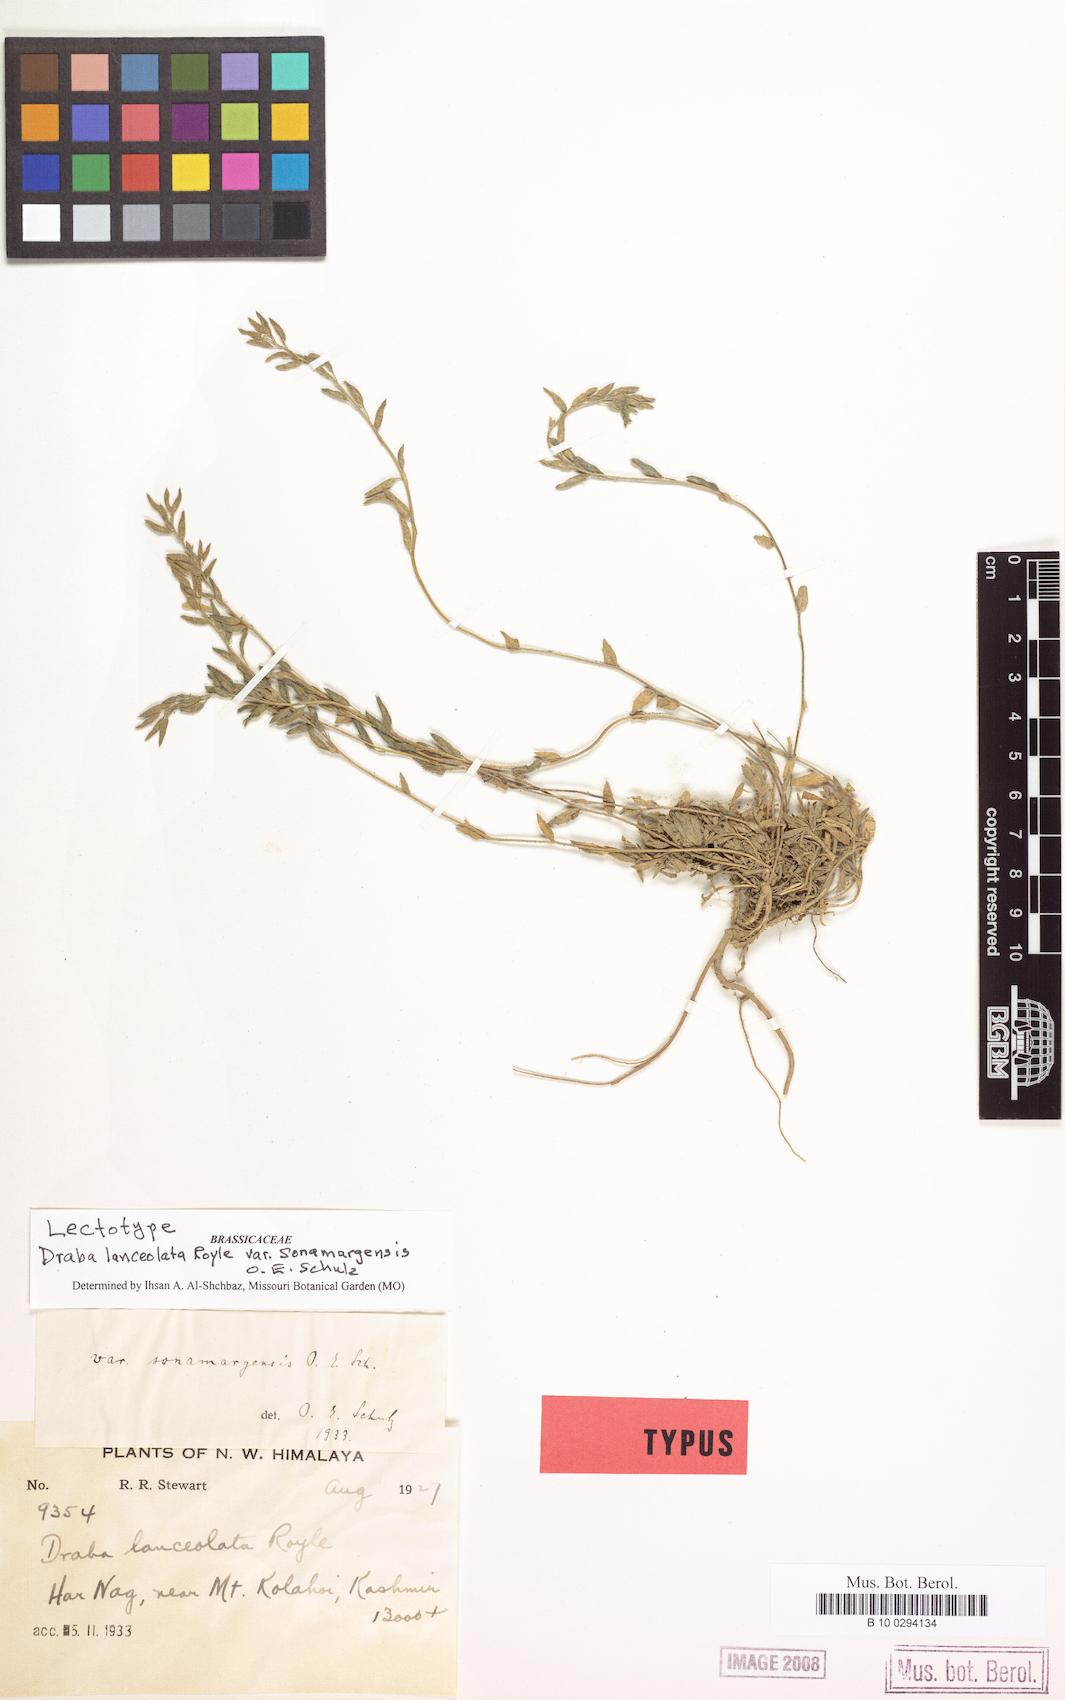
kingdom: Plantae
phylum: Tracheophyta
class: Magnoliopsida
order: Brassicales
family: Brassicaceae
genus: Draba
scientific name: Draba lasiophylla
